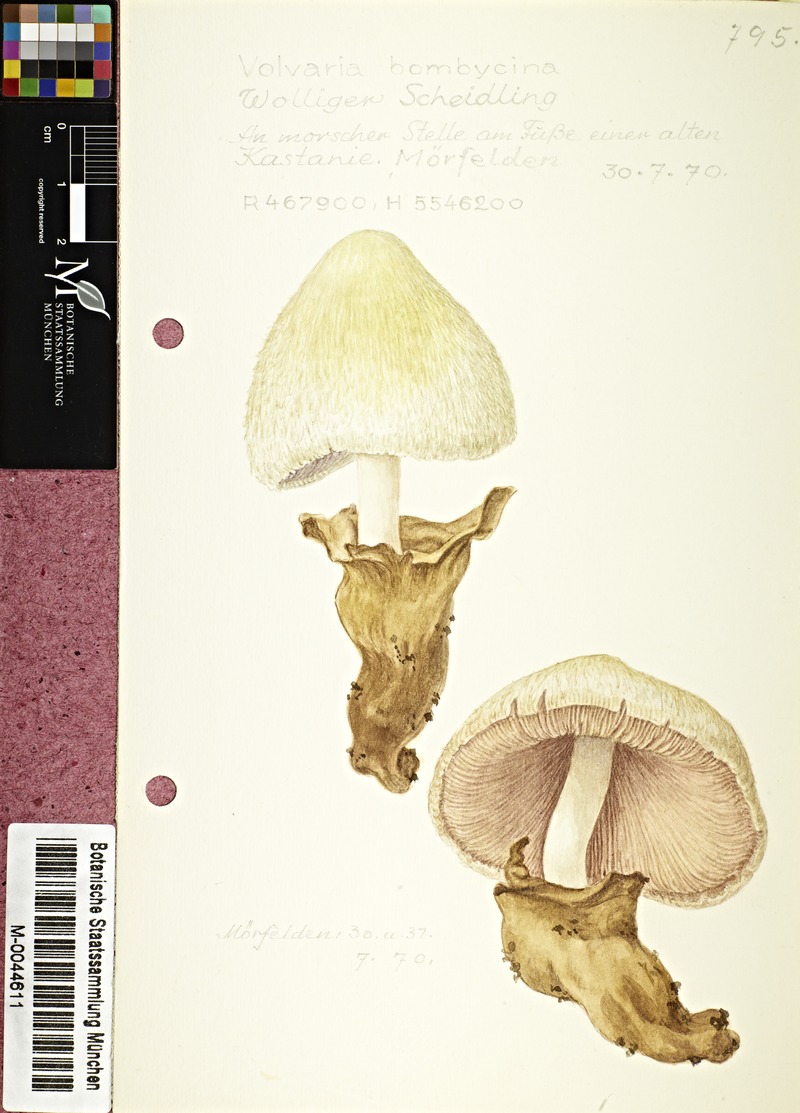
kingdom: Fungi
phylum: Basidiomycota
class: Agaricomycetes
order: Agaricales
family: Pluteaceae
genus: Volvariella
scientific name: Volvariella bombycina
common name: Silky rosegill
